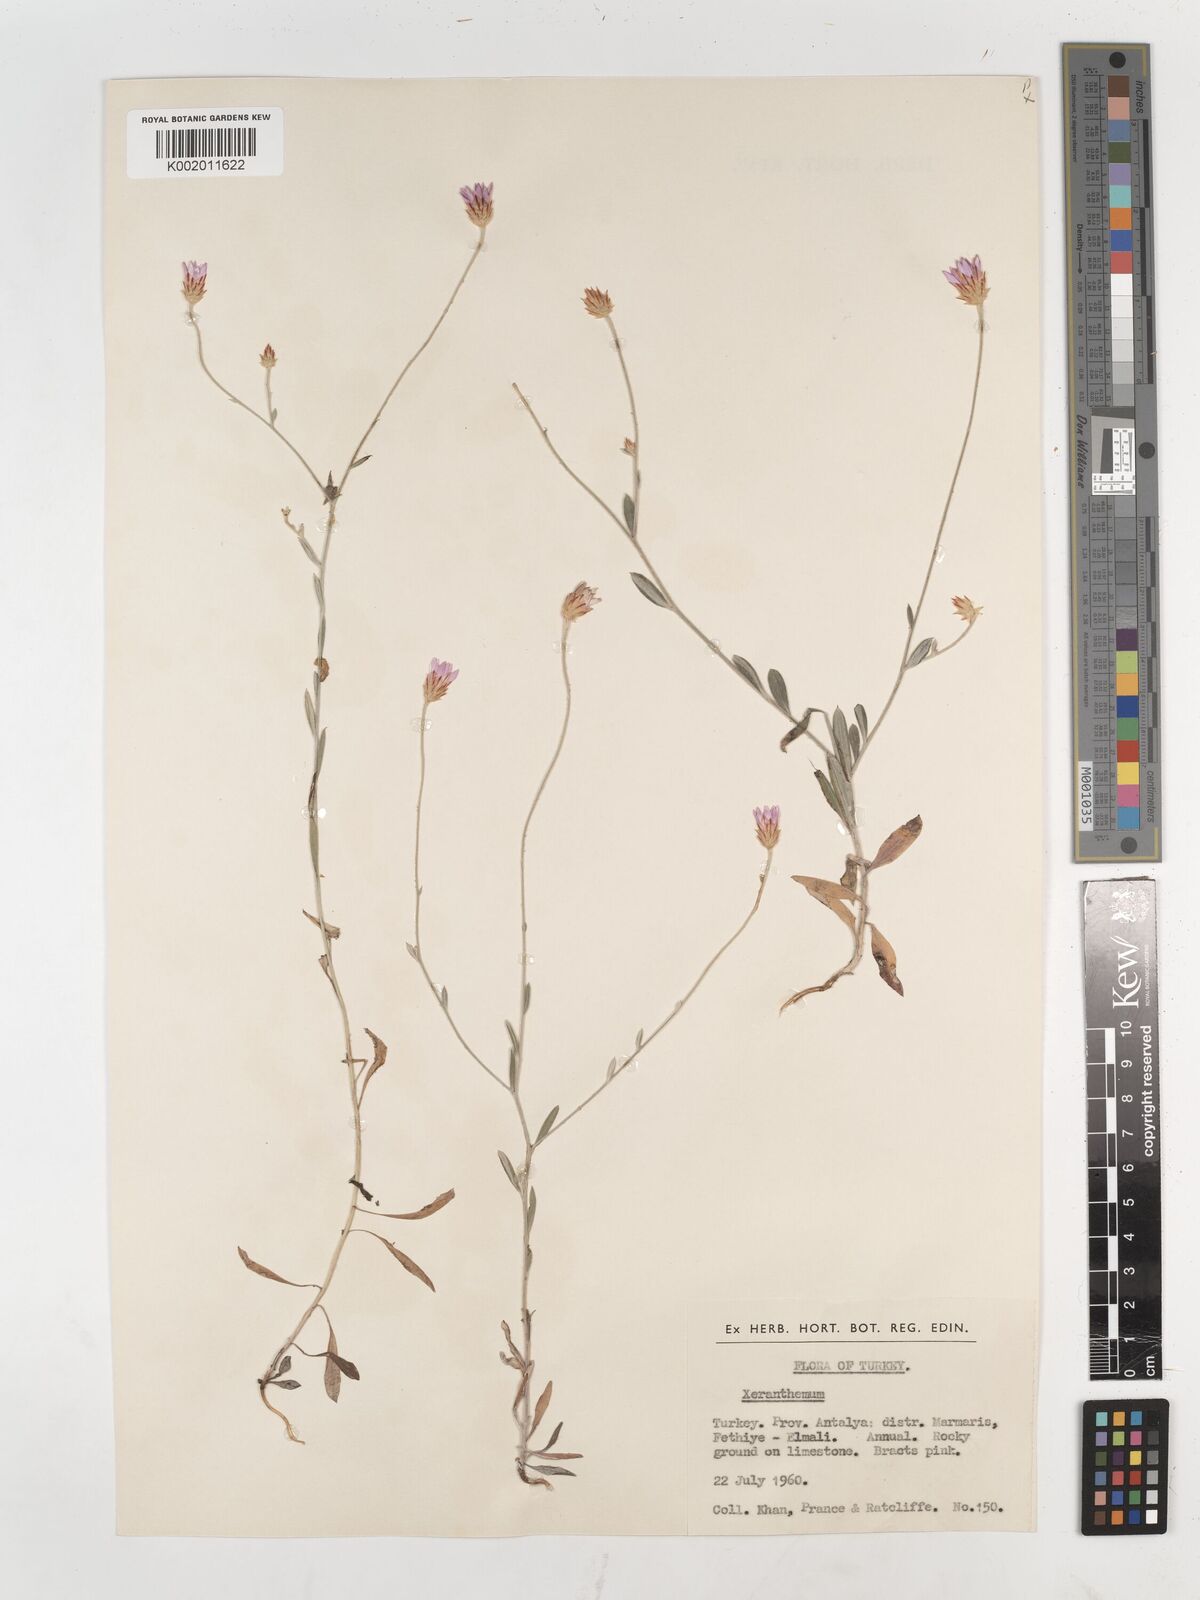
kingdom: Plantae
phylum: Tracheophyta
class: Magnoliopsida
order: Asterales
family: Asteraceae
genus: Xeranthemum
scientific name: Xeranthemum annuum
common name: Immortelle
